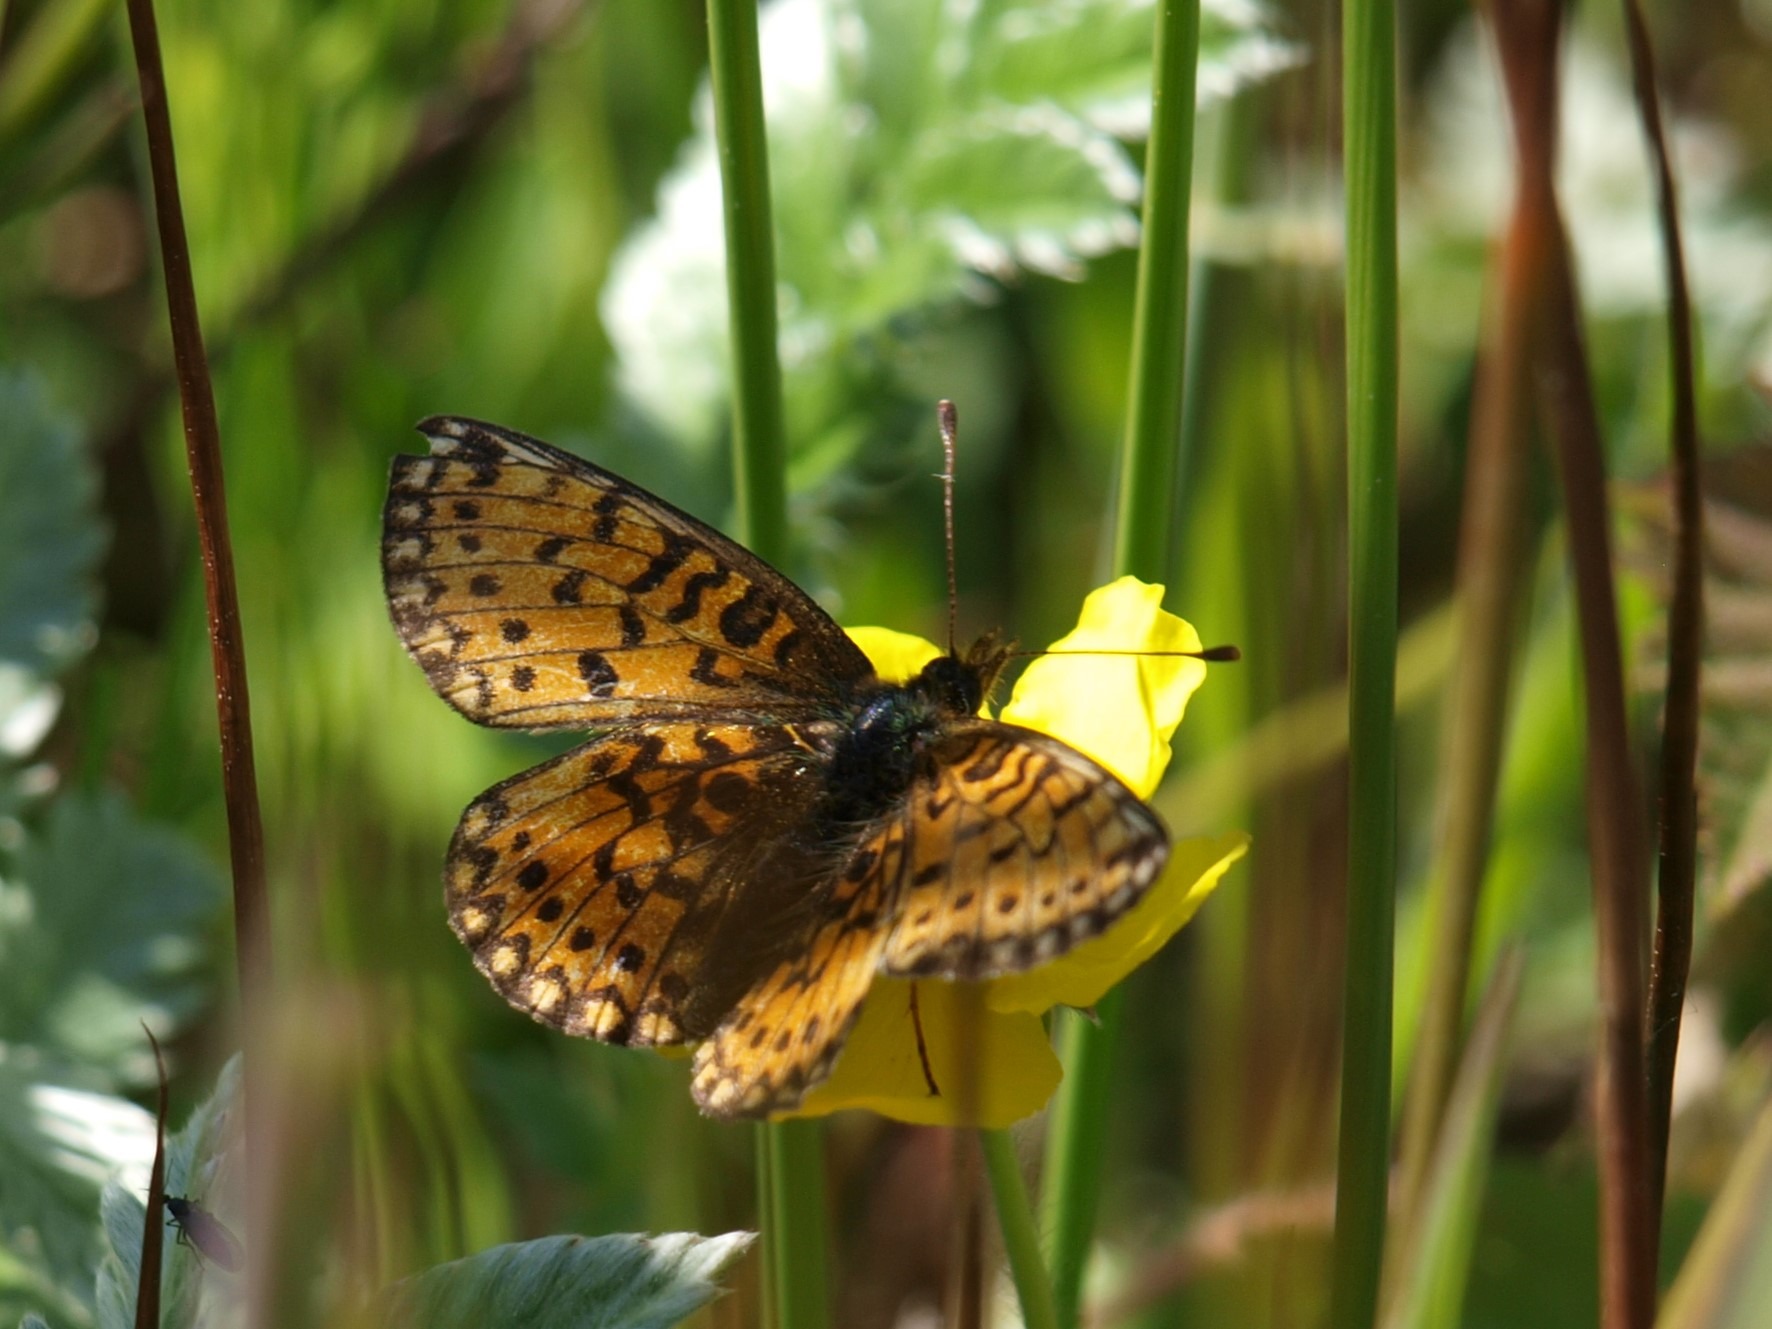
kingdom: Animalia
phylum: Arthropoda
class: Insecta
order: Lepidoptera
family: Nymphalidae
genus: Boloria
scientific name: Boloria selene
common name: Brunlig perlemorsommerfugl
